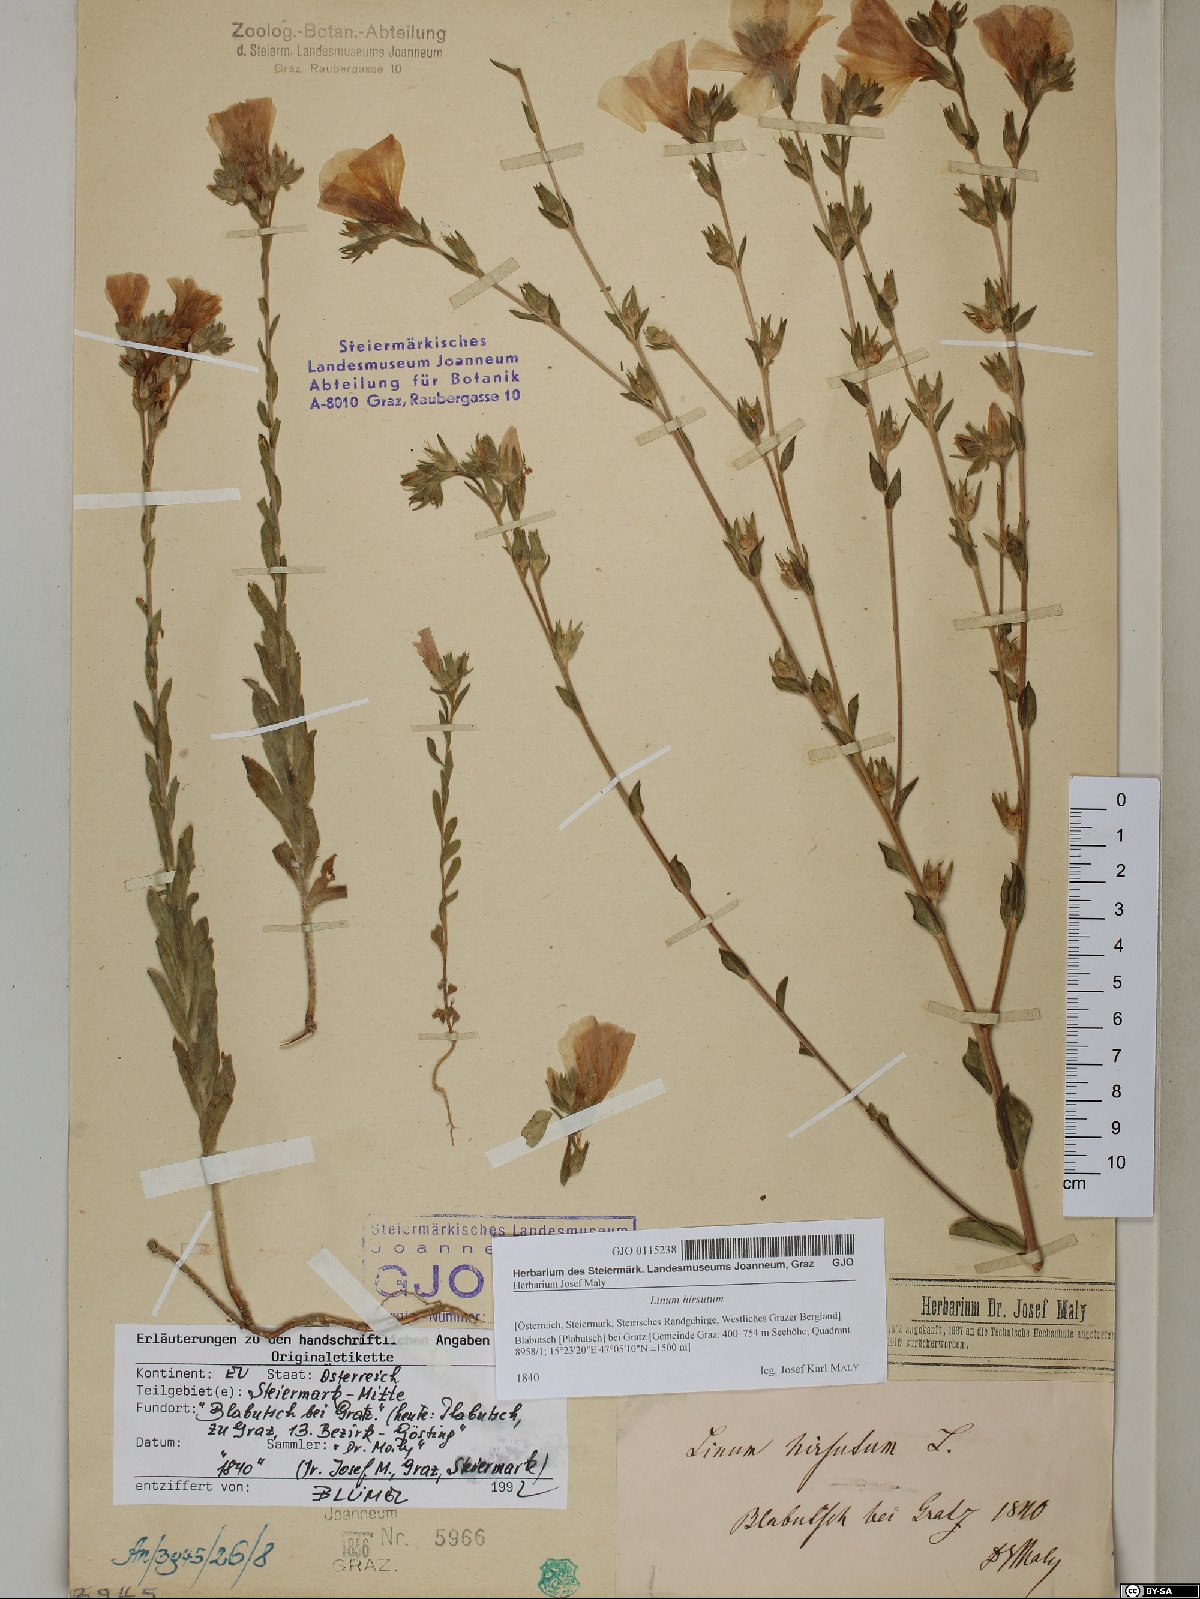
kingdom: Plantae
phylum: Tracheophyta
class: Magnoliopsida
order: Malpighiales
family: Linaceae
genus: Linum
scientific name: Linum hirsutum
